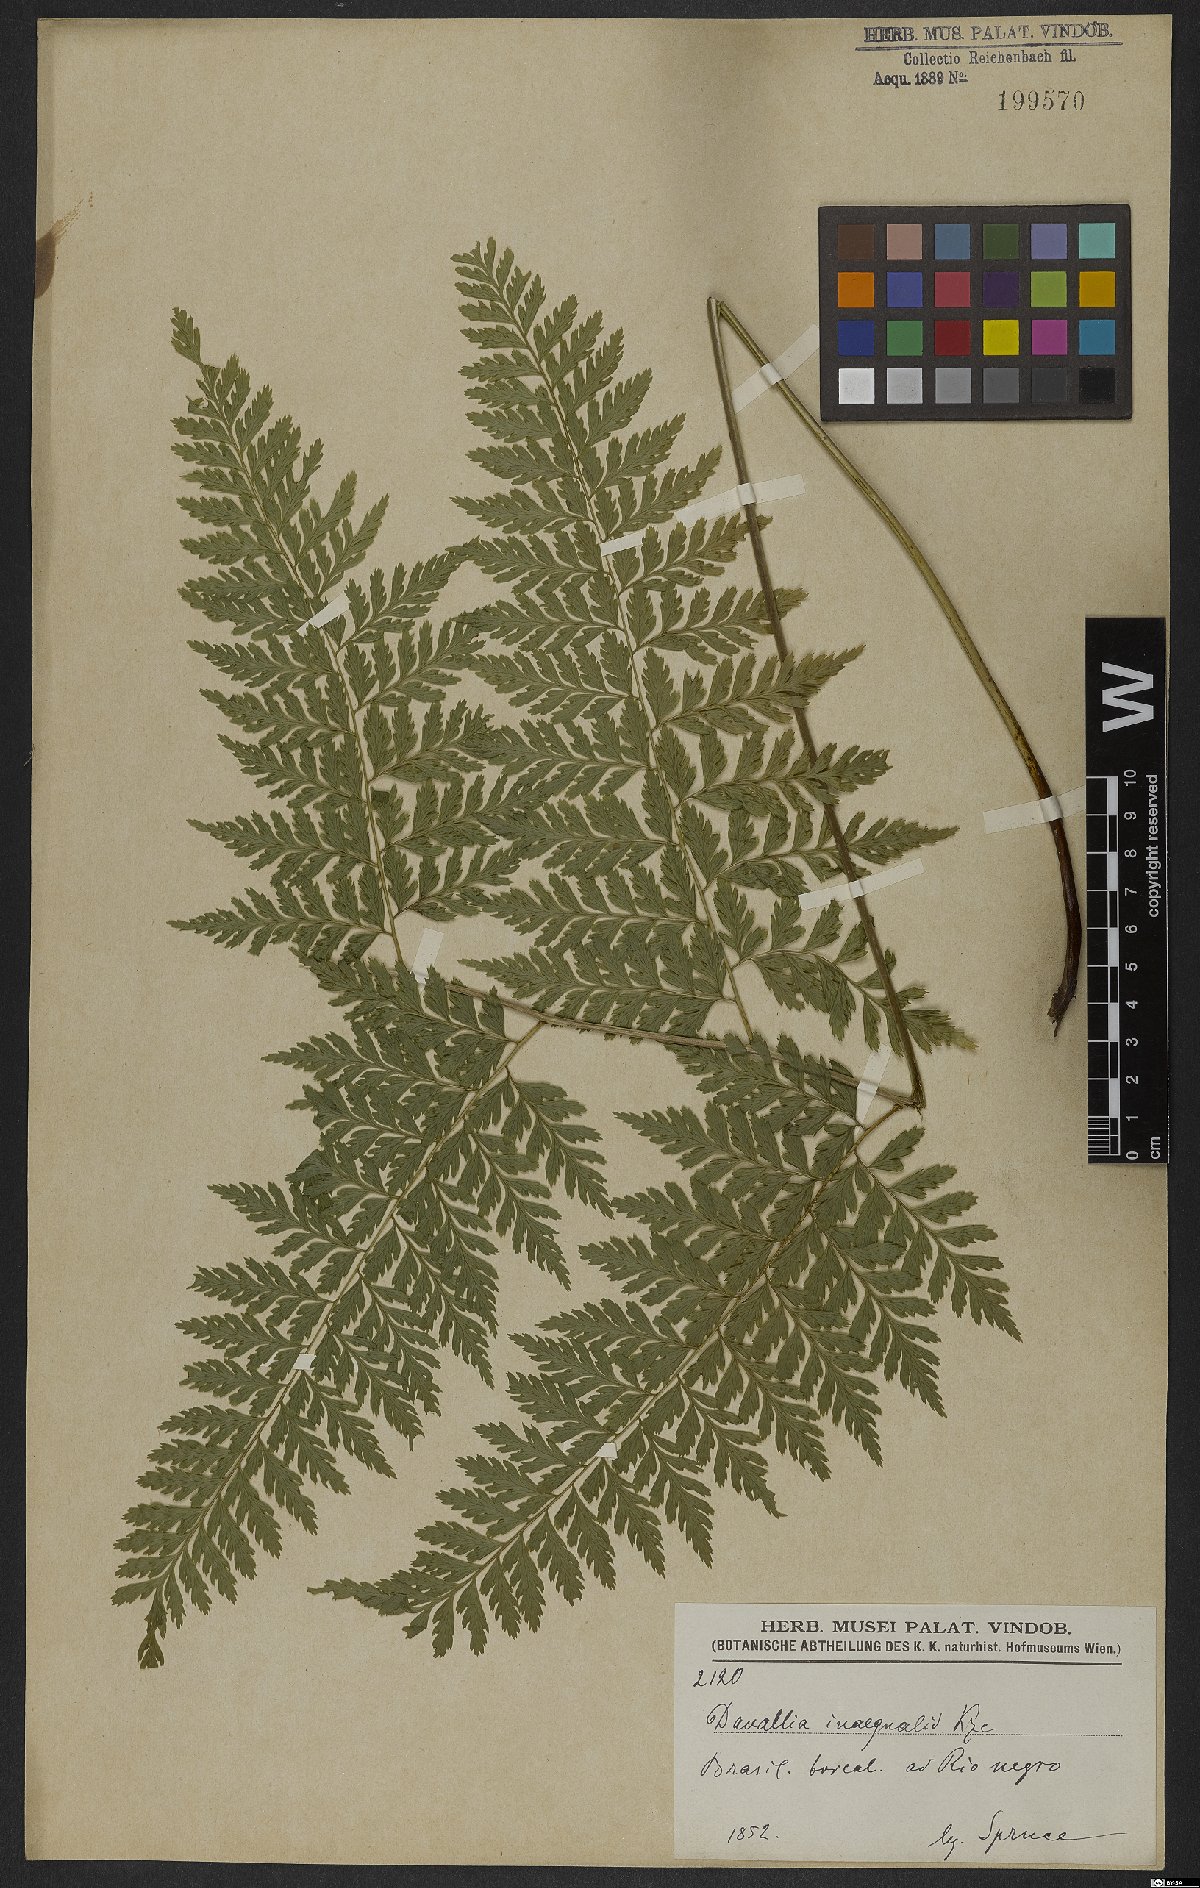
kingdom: Plantae
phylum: Tracheophyta
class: Polypodiopsida
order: Polypodiales
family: Saccolomataceae
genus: Saccoloma
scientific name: Saccoloma inaequale
